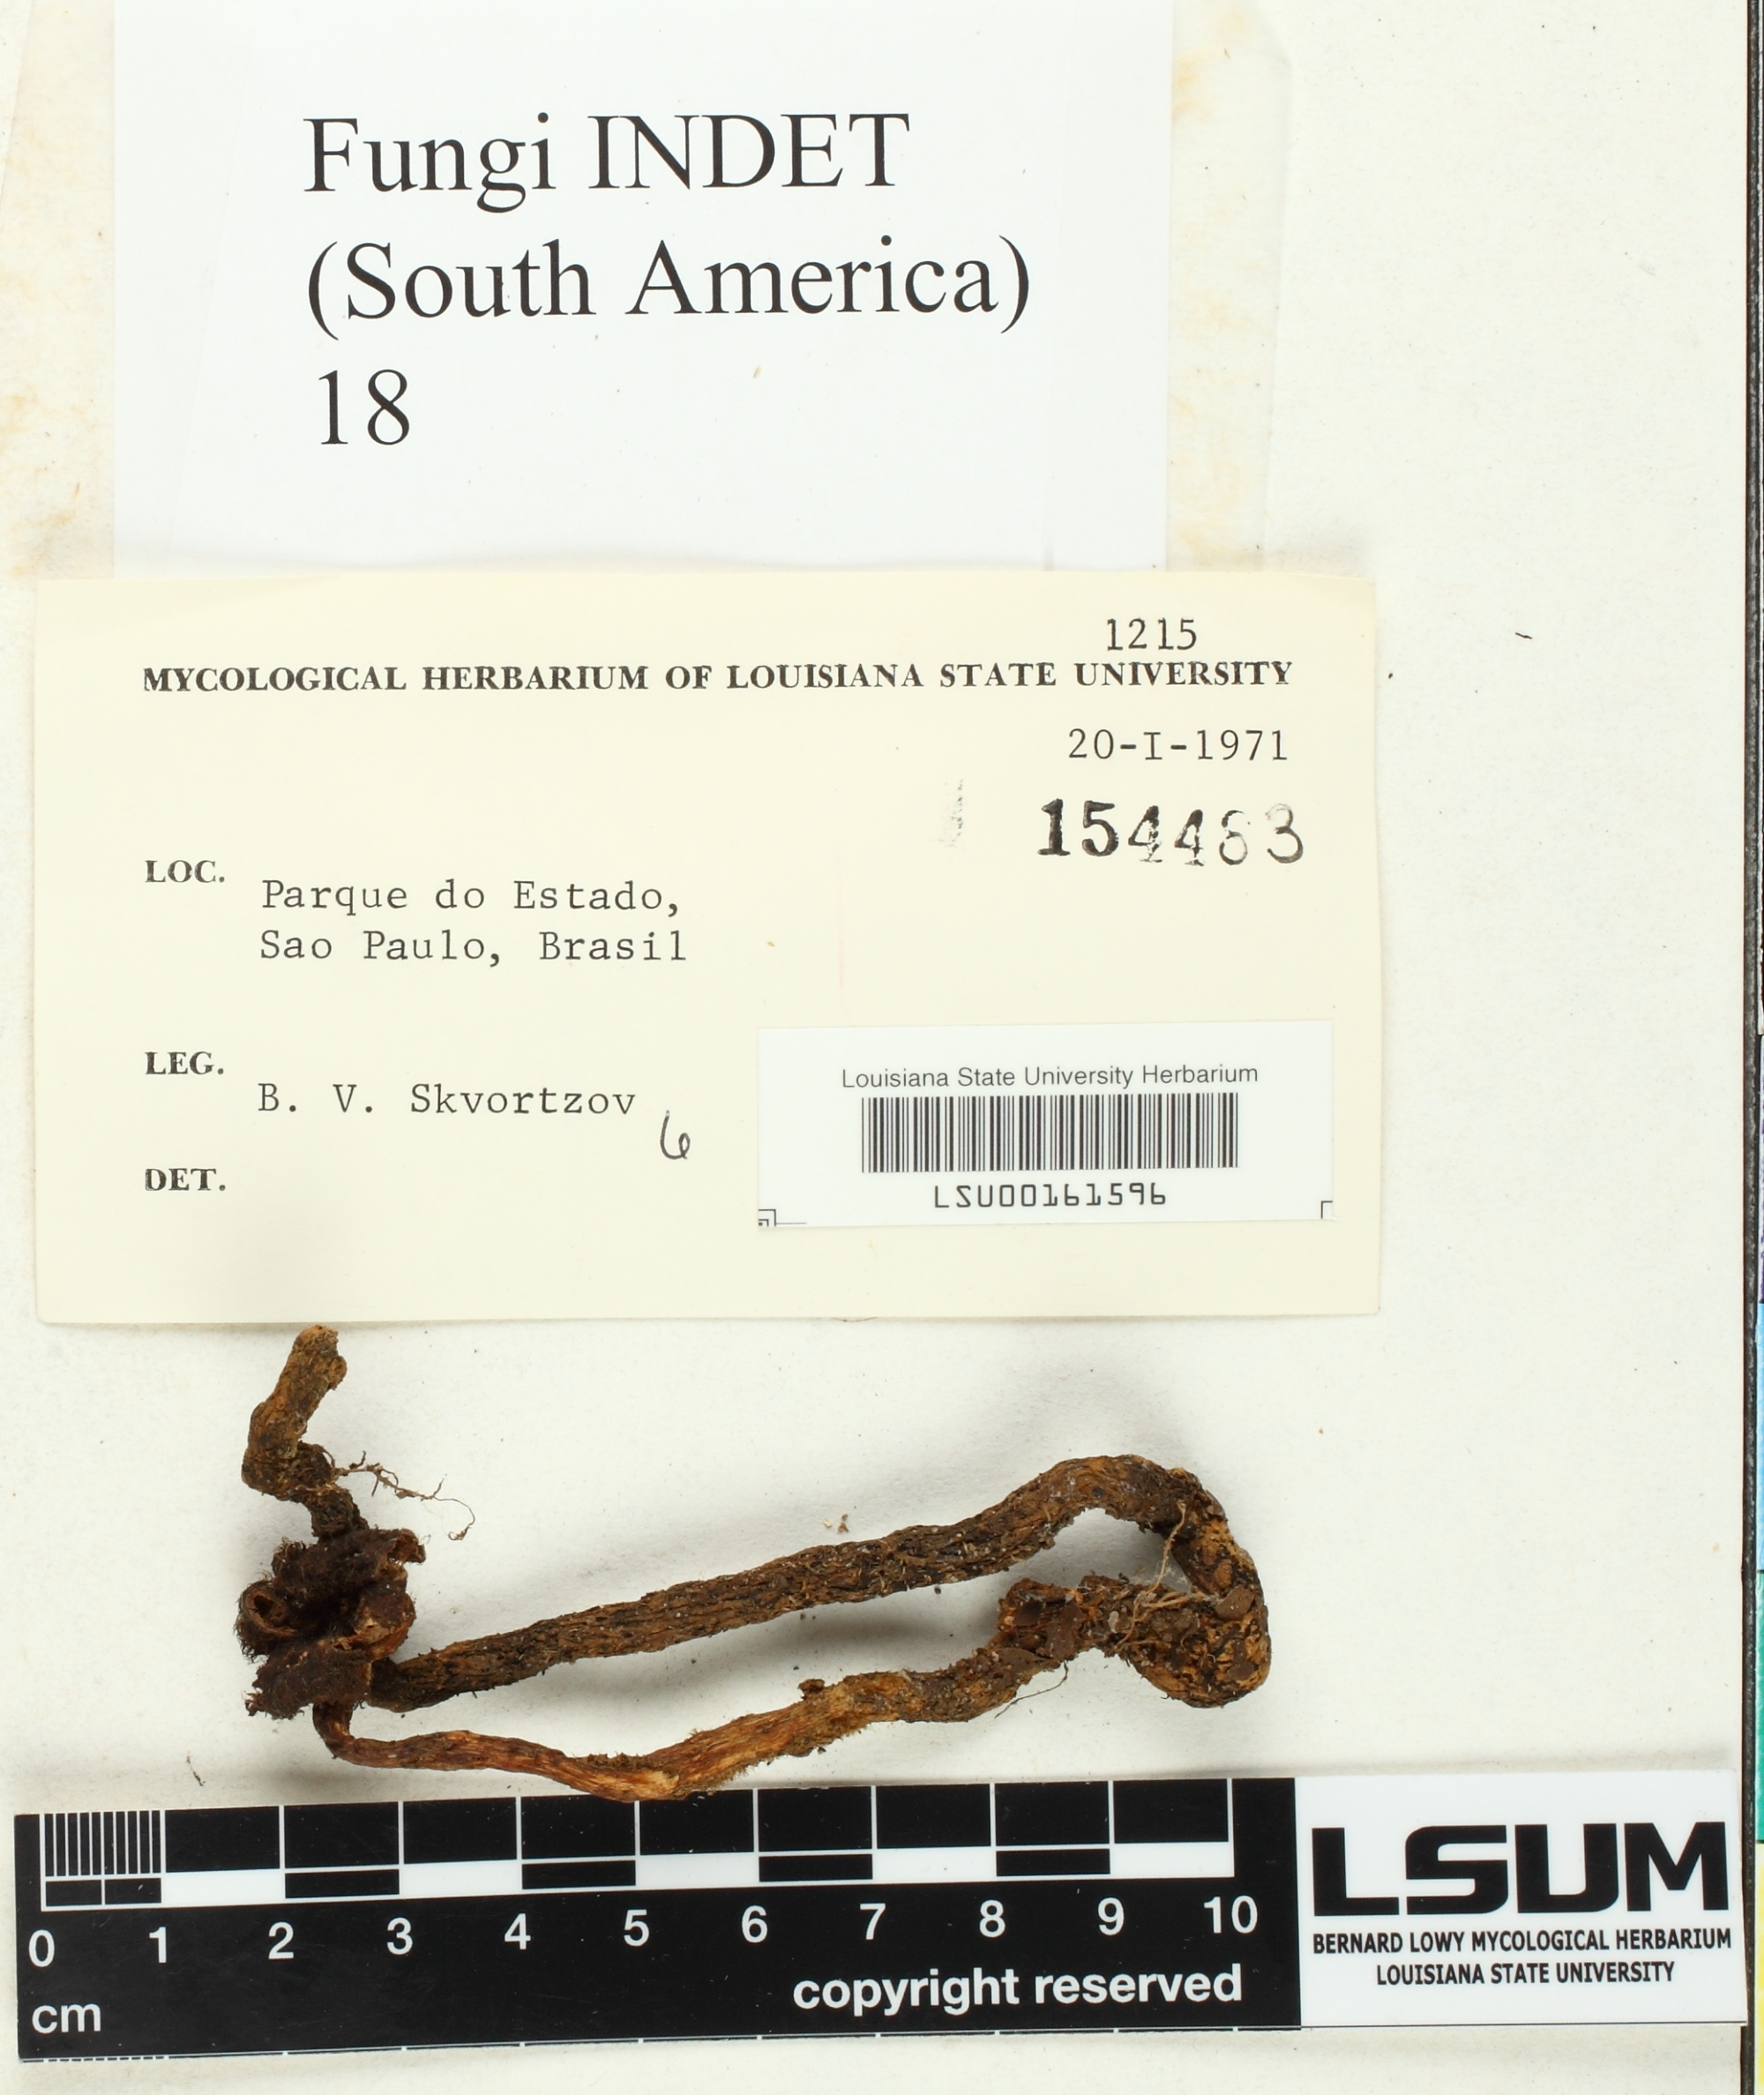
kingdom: Fungi
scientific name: Fungi
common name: Fungi
